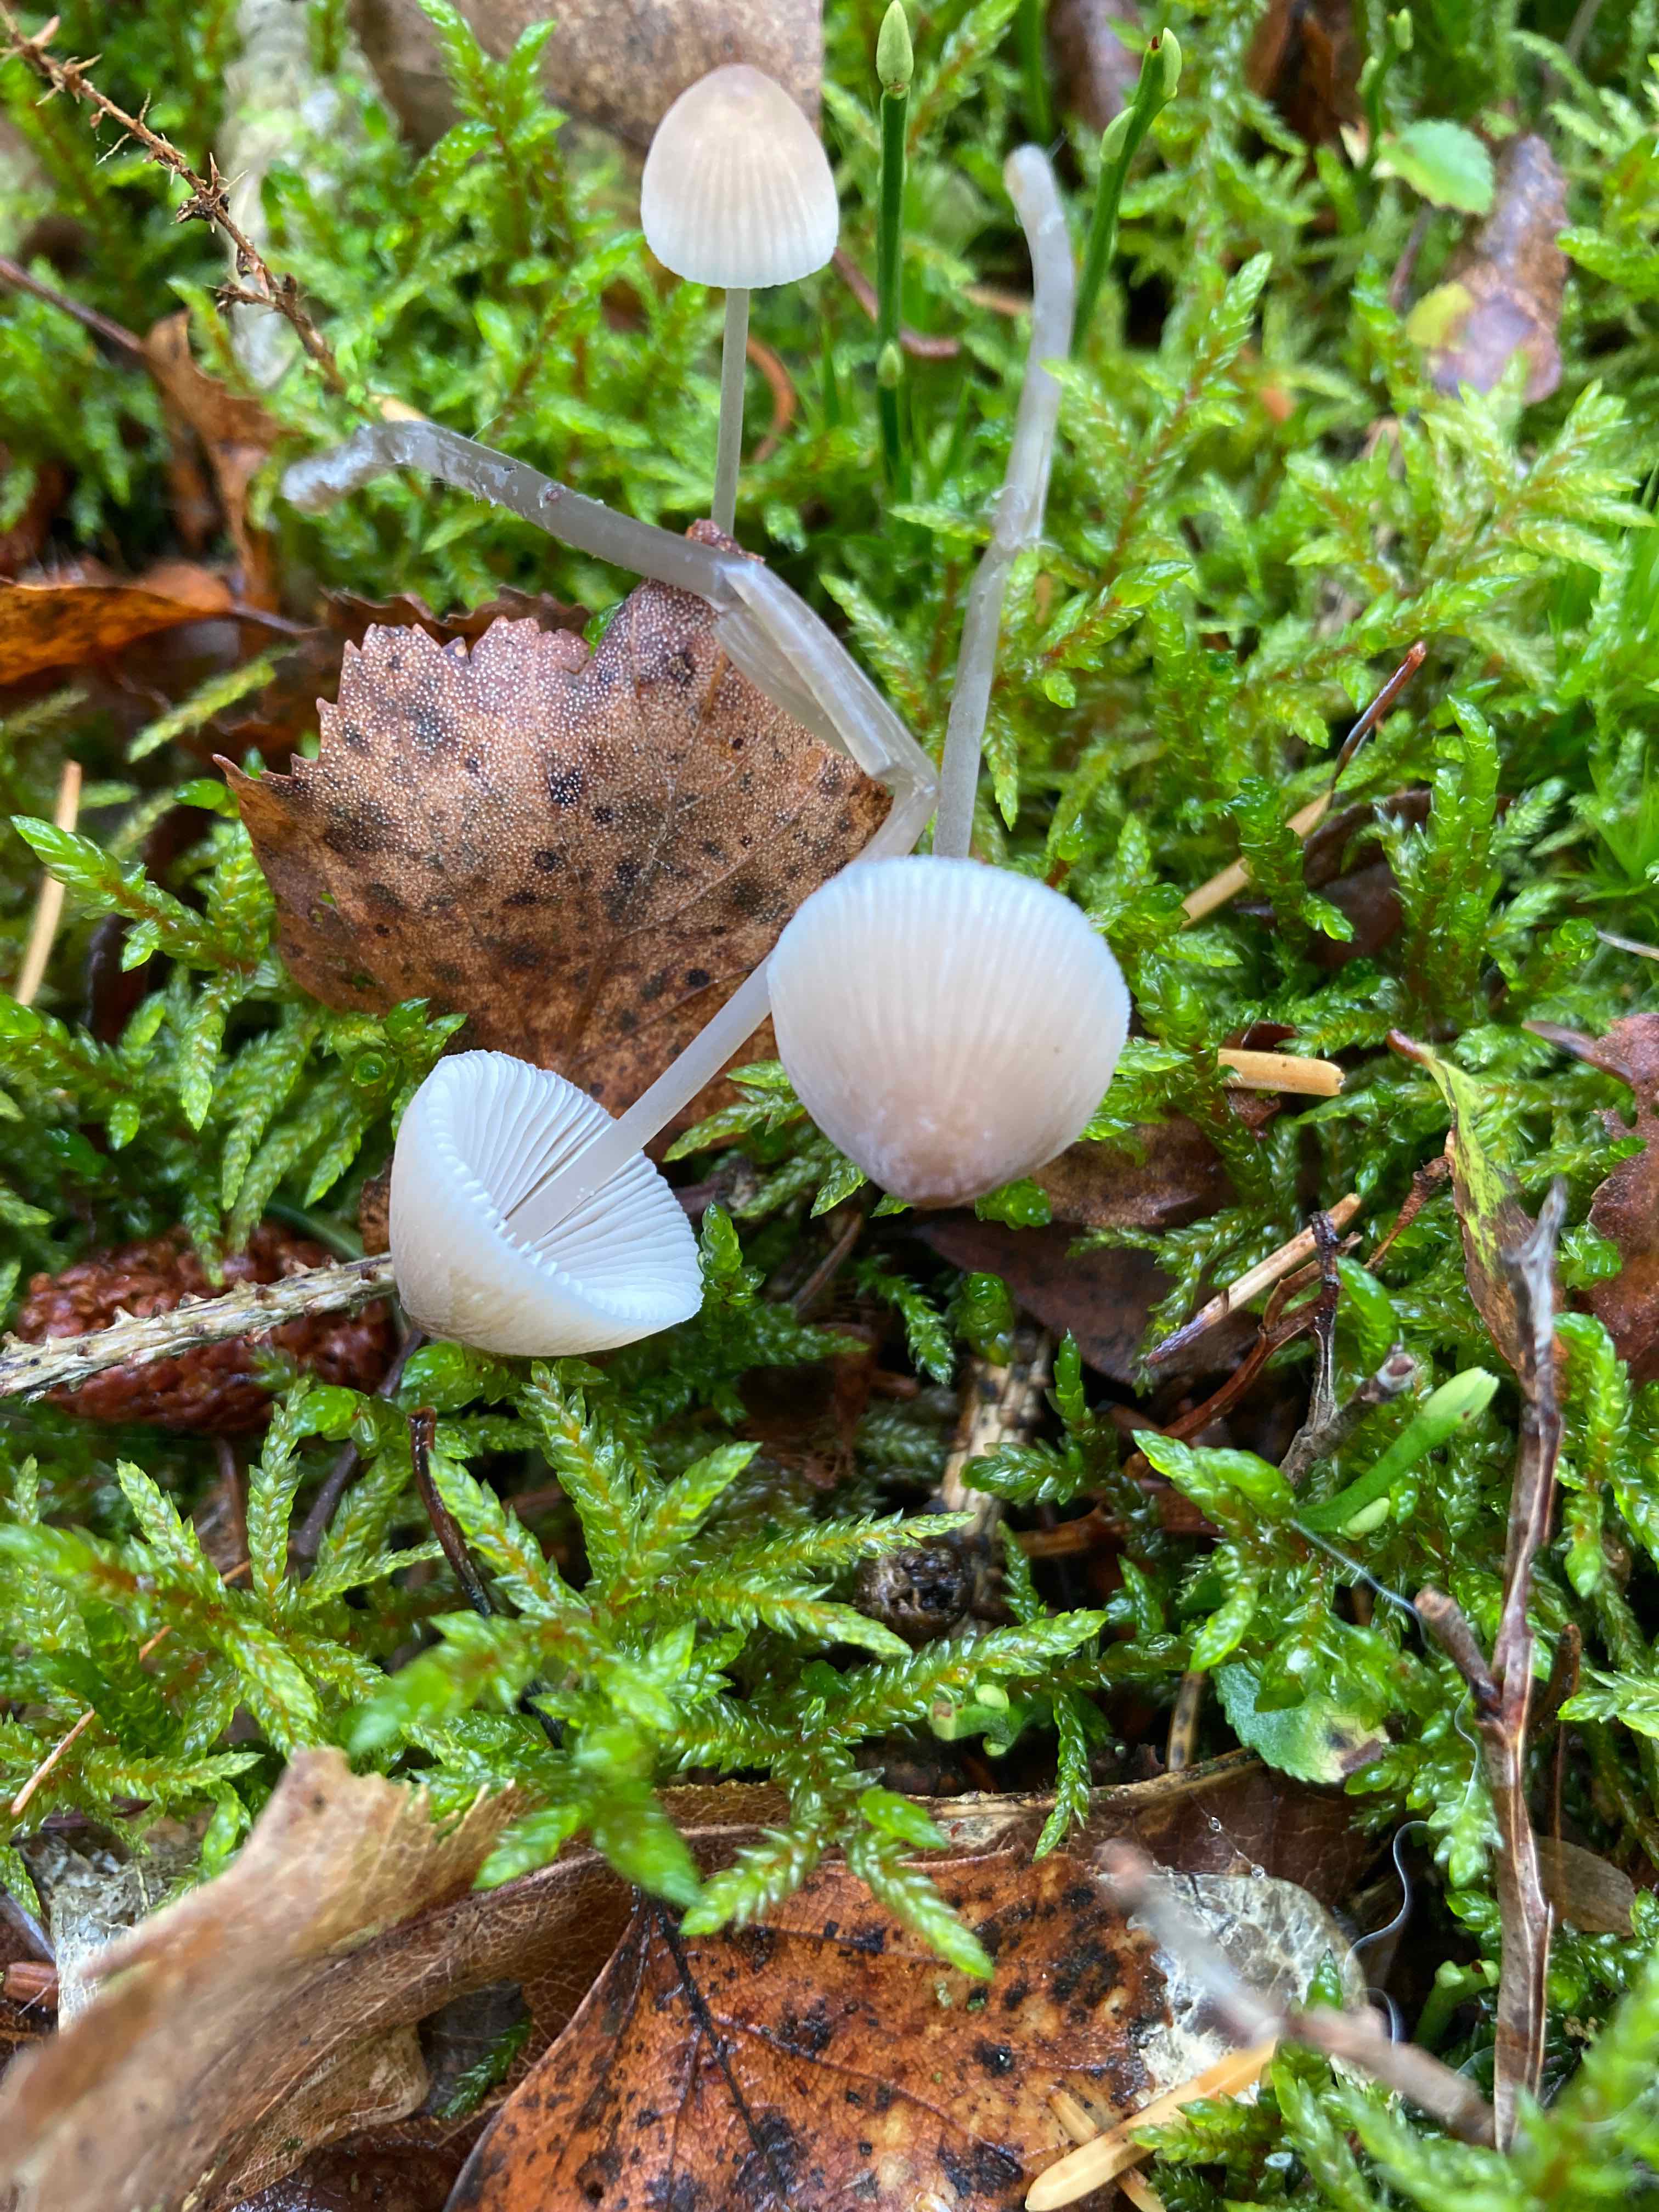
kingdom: Fungi
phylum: Basidiomycota
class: Agaricomycetes
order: Agaricales
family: Mycenaceae
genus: Mycena
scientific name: Mycena metata
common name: rødlig huesvamp
